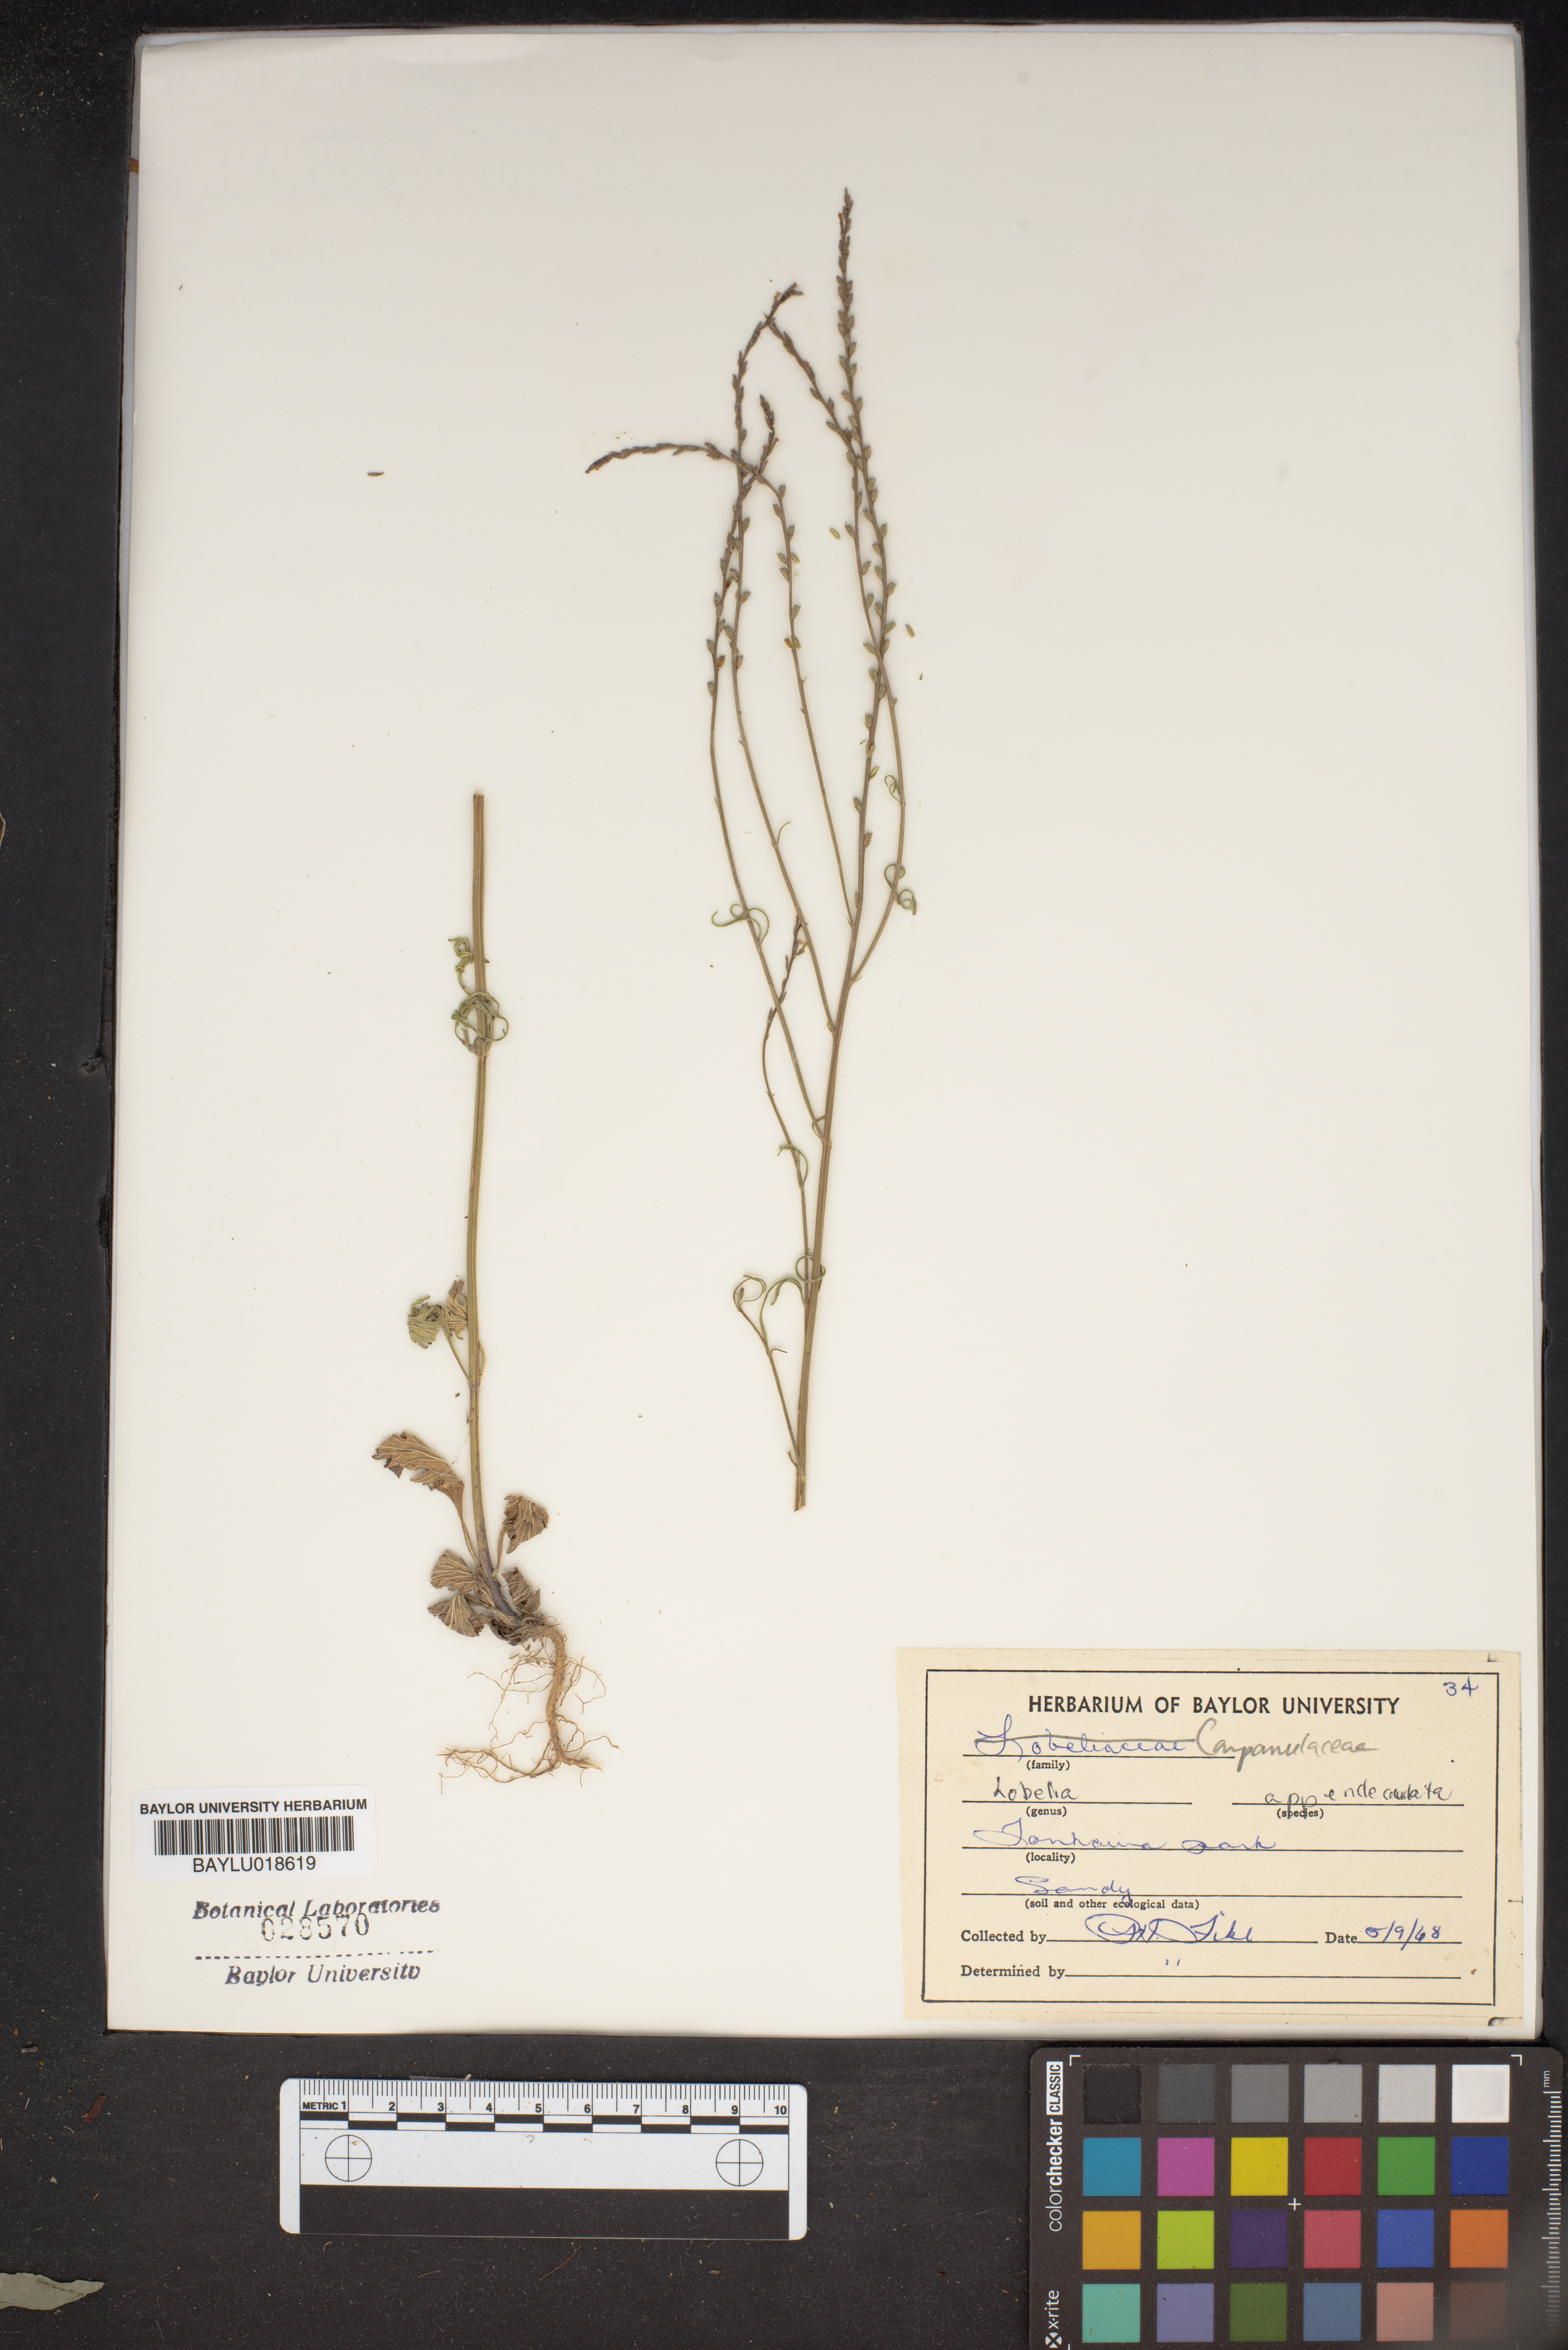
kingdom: Plantae
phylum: Tracheophyta
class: Magnoliopsida
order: Asterales
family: Campanulaceae
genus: Lobelia
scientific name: Lobelia appendiculata
